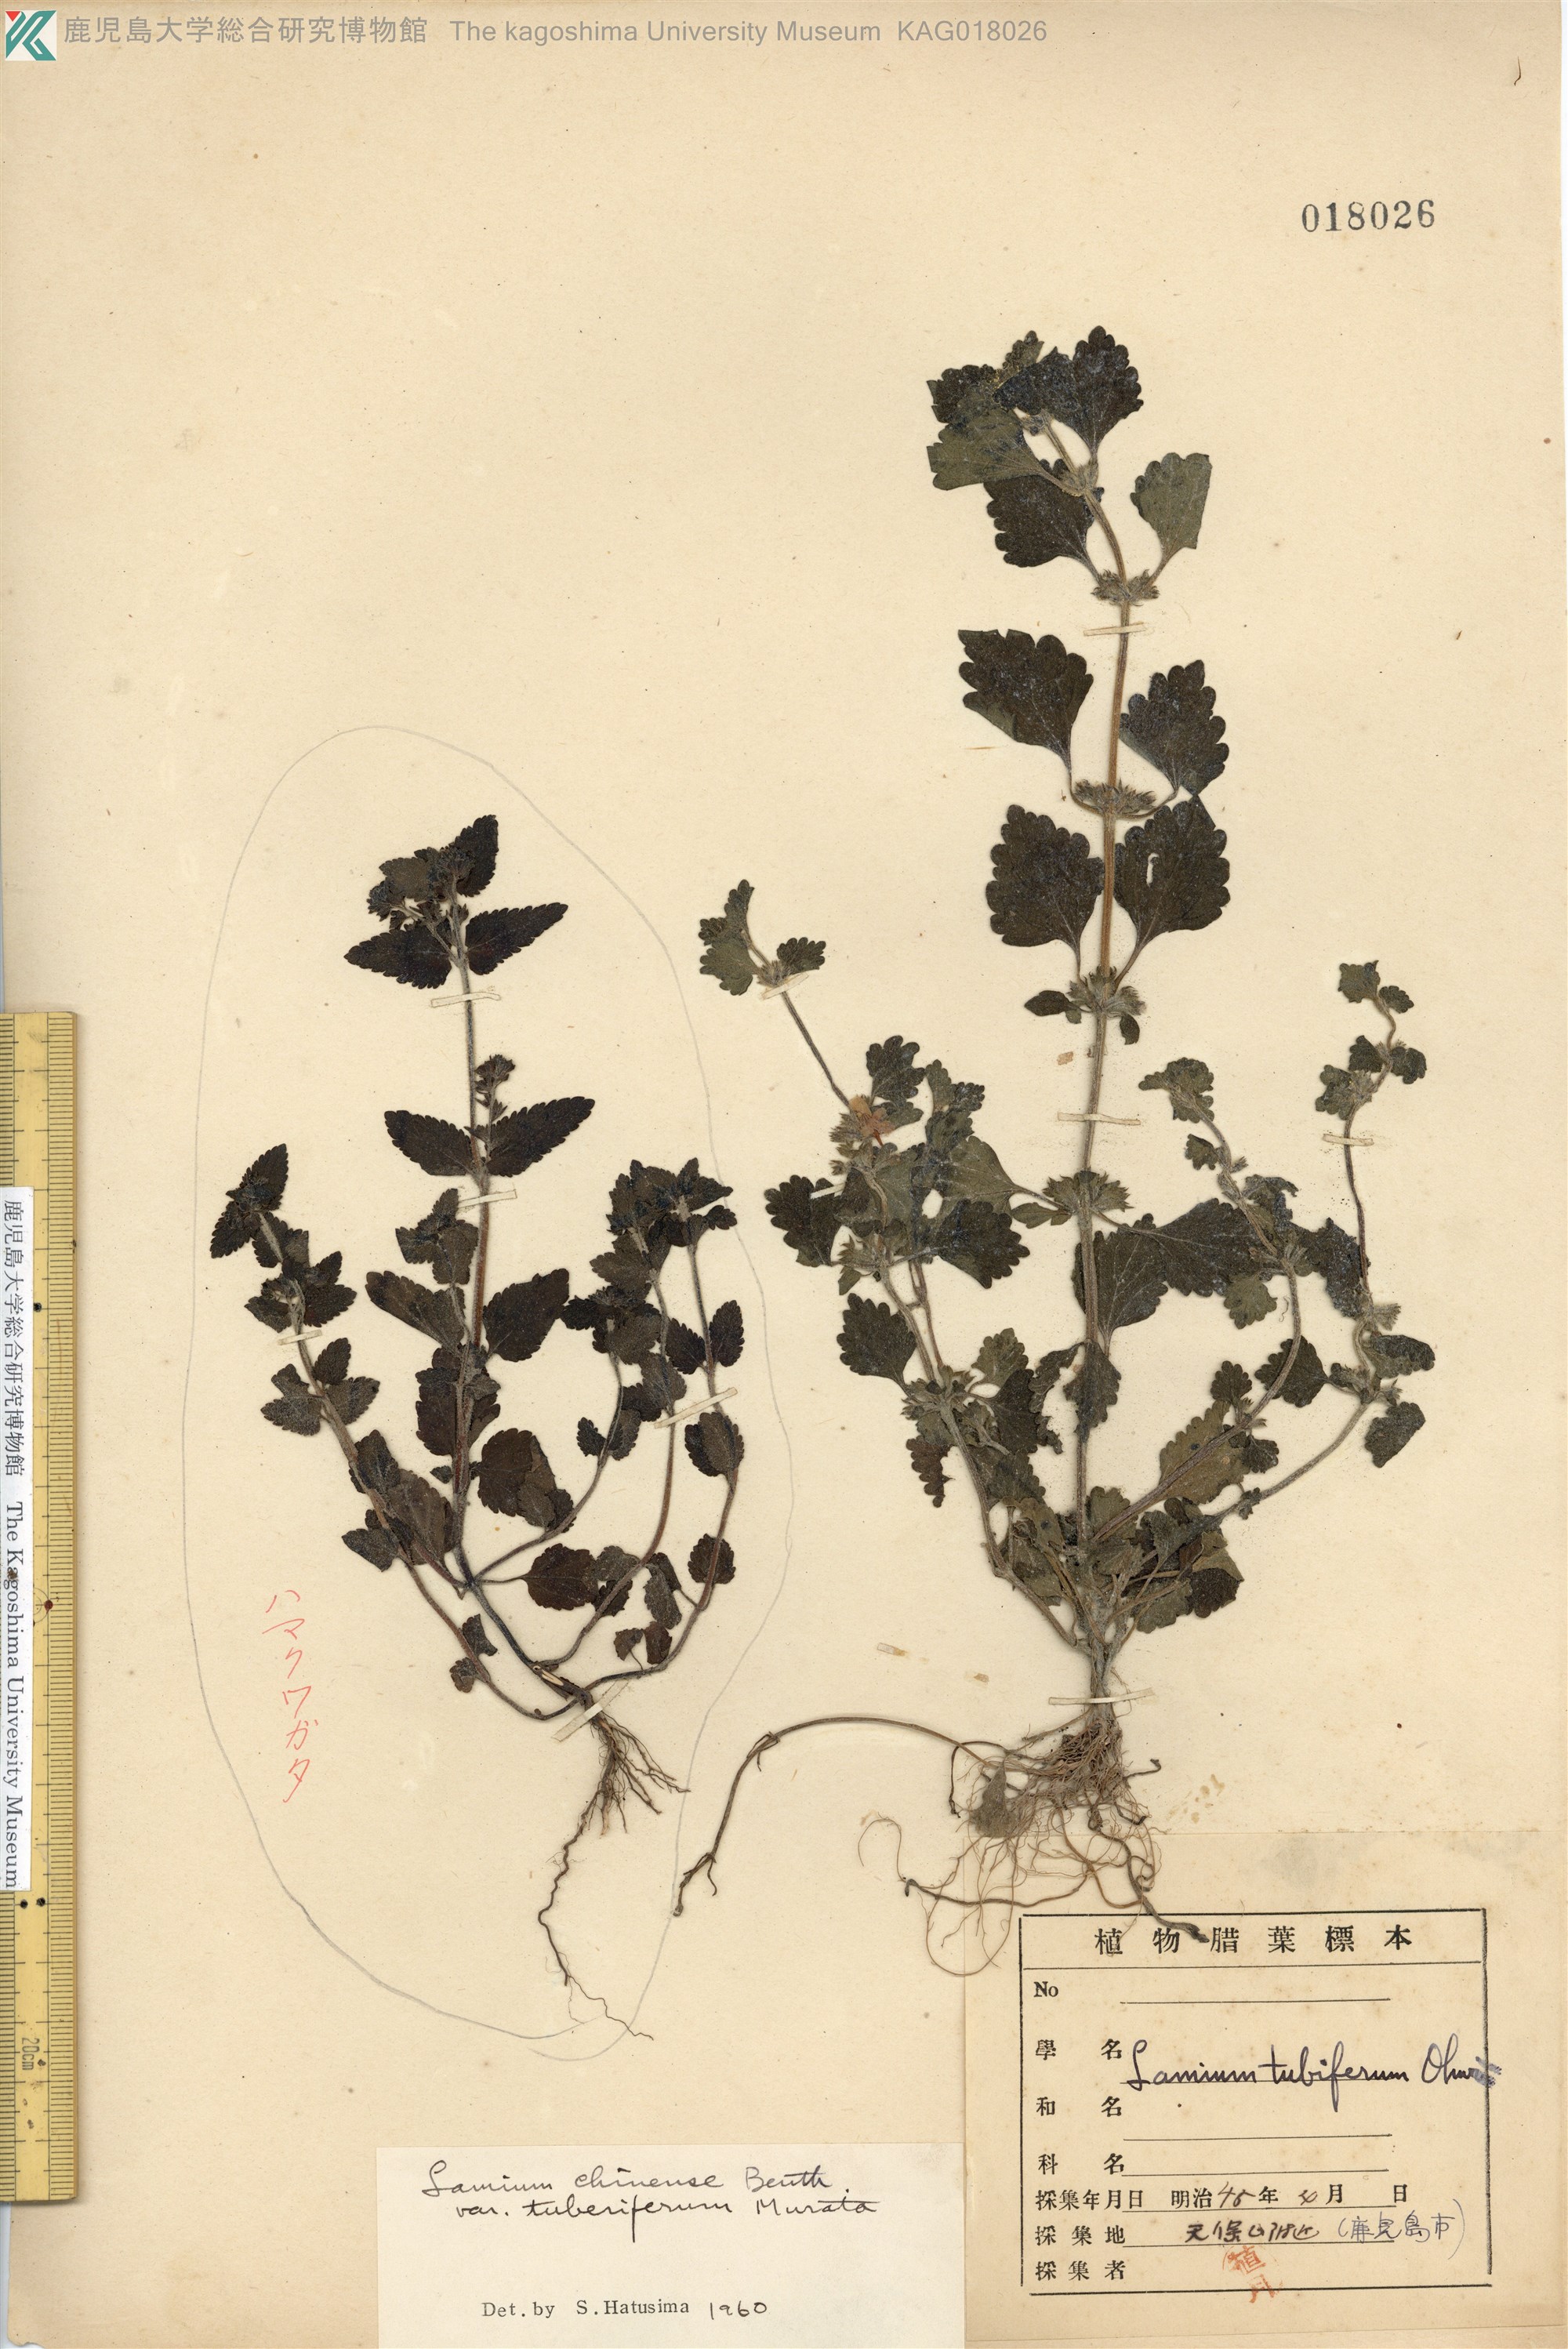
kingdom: Plantae
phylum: Tracheophyta
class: Magnoliopsida
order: Lamiales
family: Lamiaceae
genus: Matsumurella
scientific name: Matsumurella tuberifera
